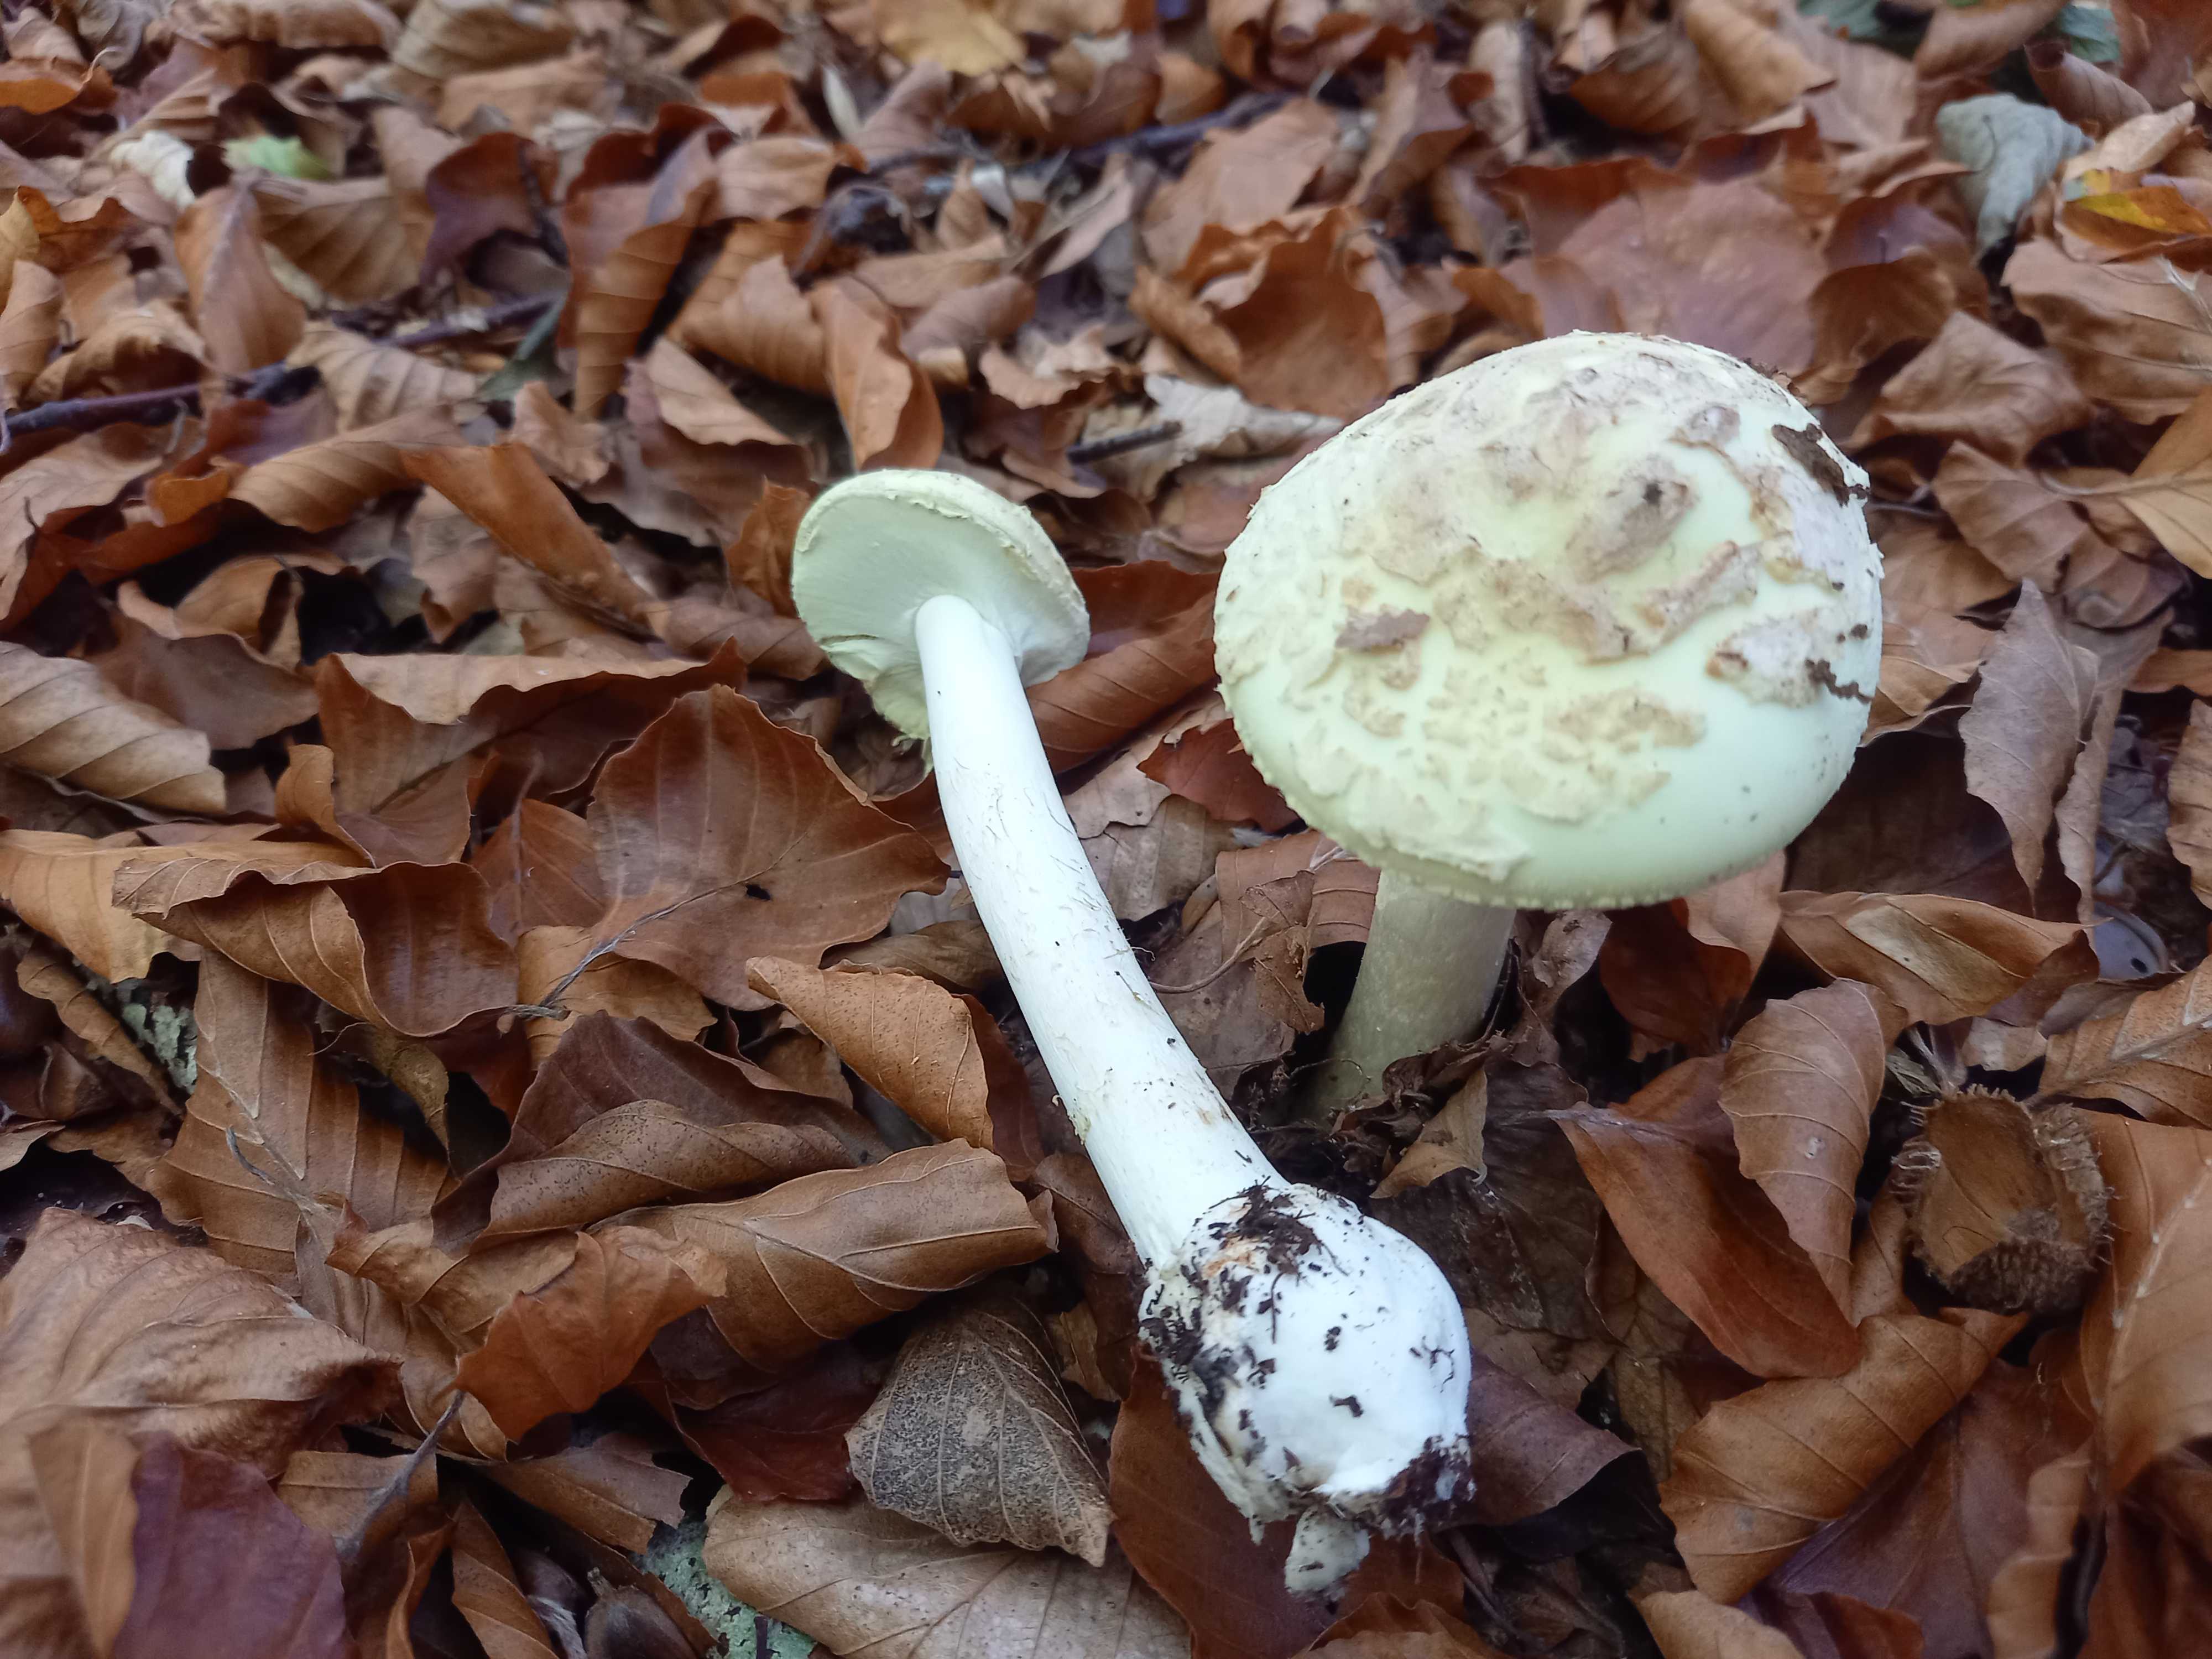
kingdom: Fungi
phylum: Basidiomycota
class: Agaricomycetes
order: Agaricales
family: Amanitaceae
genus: Amanita
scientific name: Amanita citrina
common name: kugleknoldet fluesvamp
